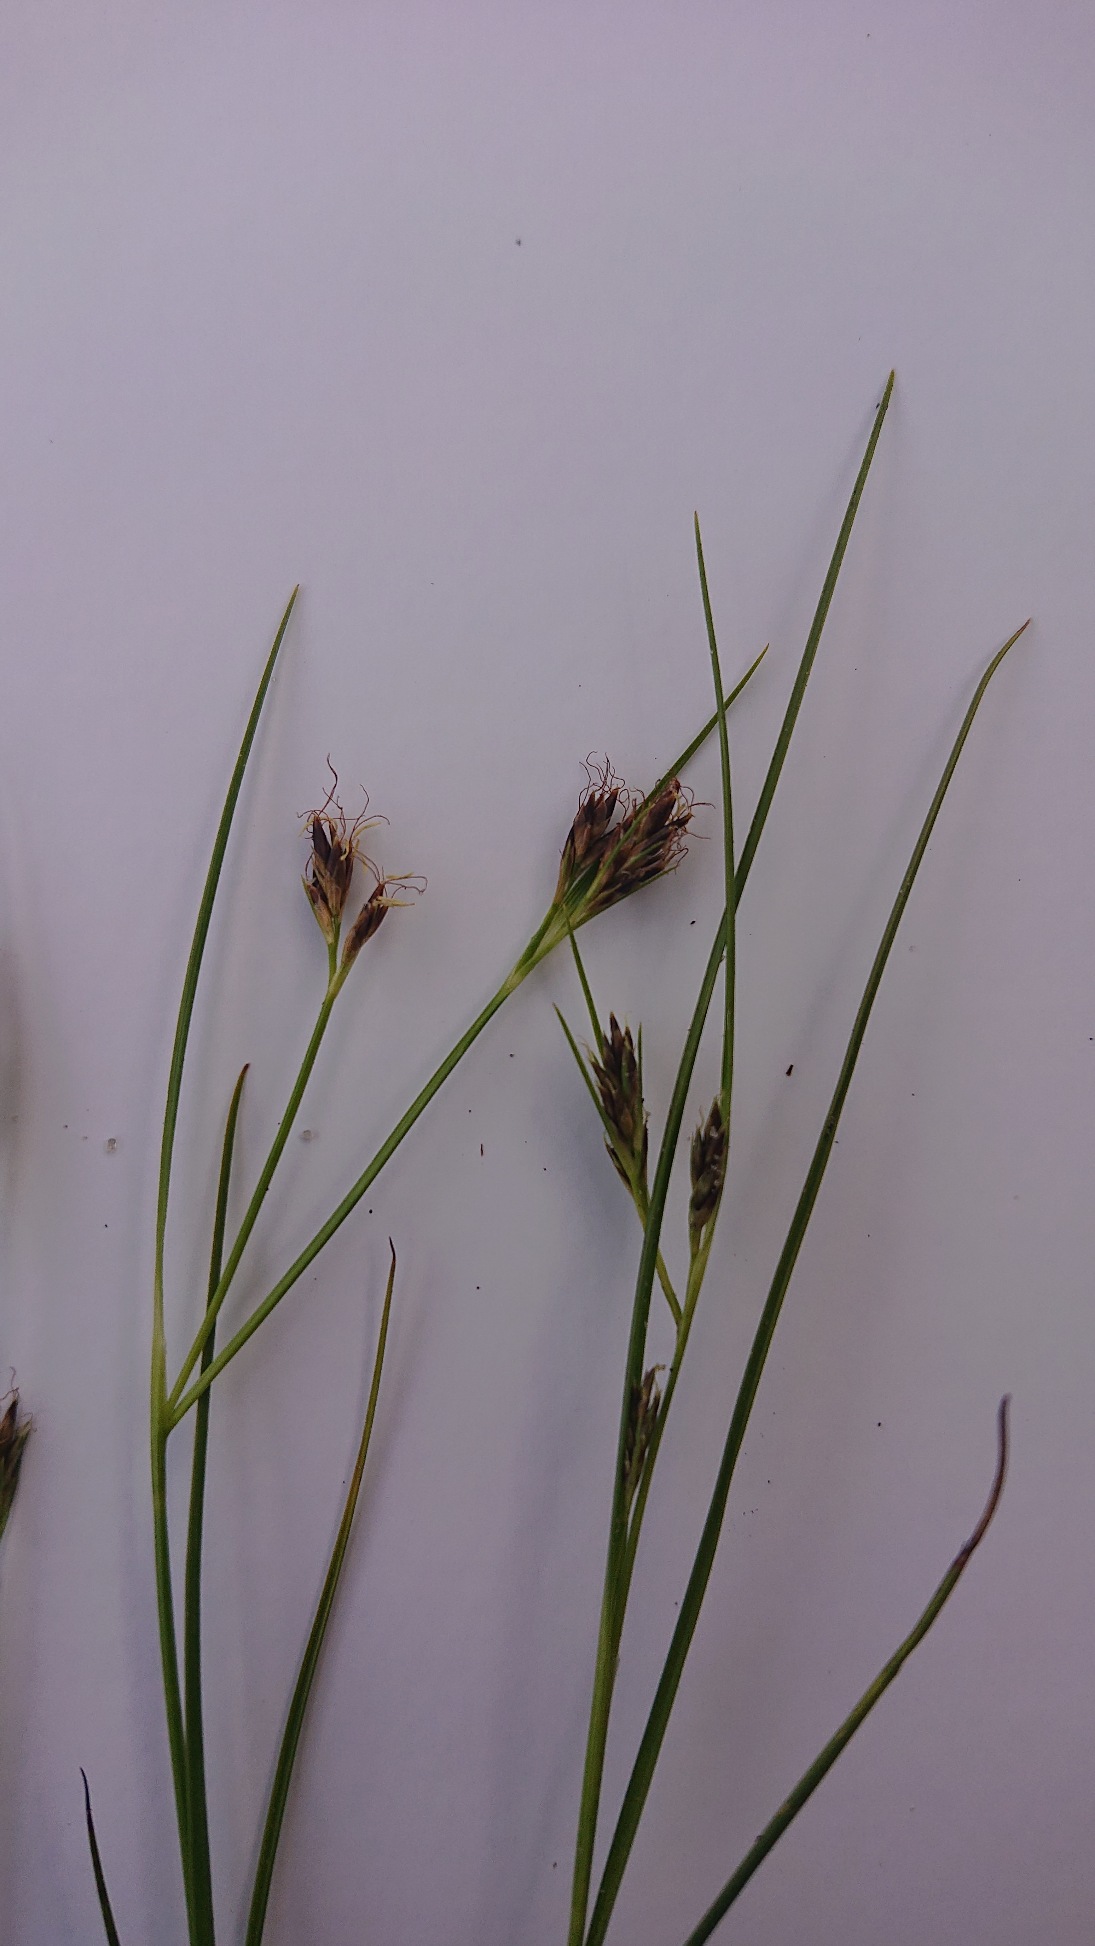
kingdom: Plantae
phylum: Tracheophyta
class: Liliopsida
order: Poales
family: Cyperaceae
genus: Rhynchospora
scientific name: Rhynchospora fusca
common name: Brun næbfrø
